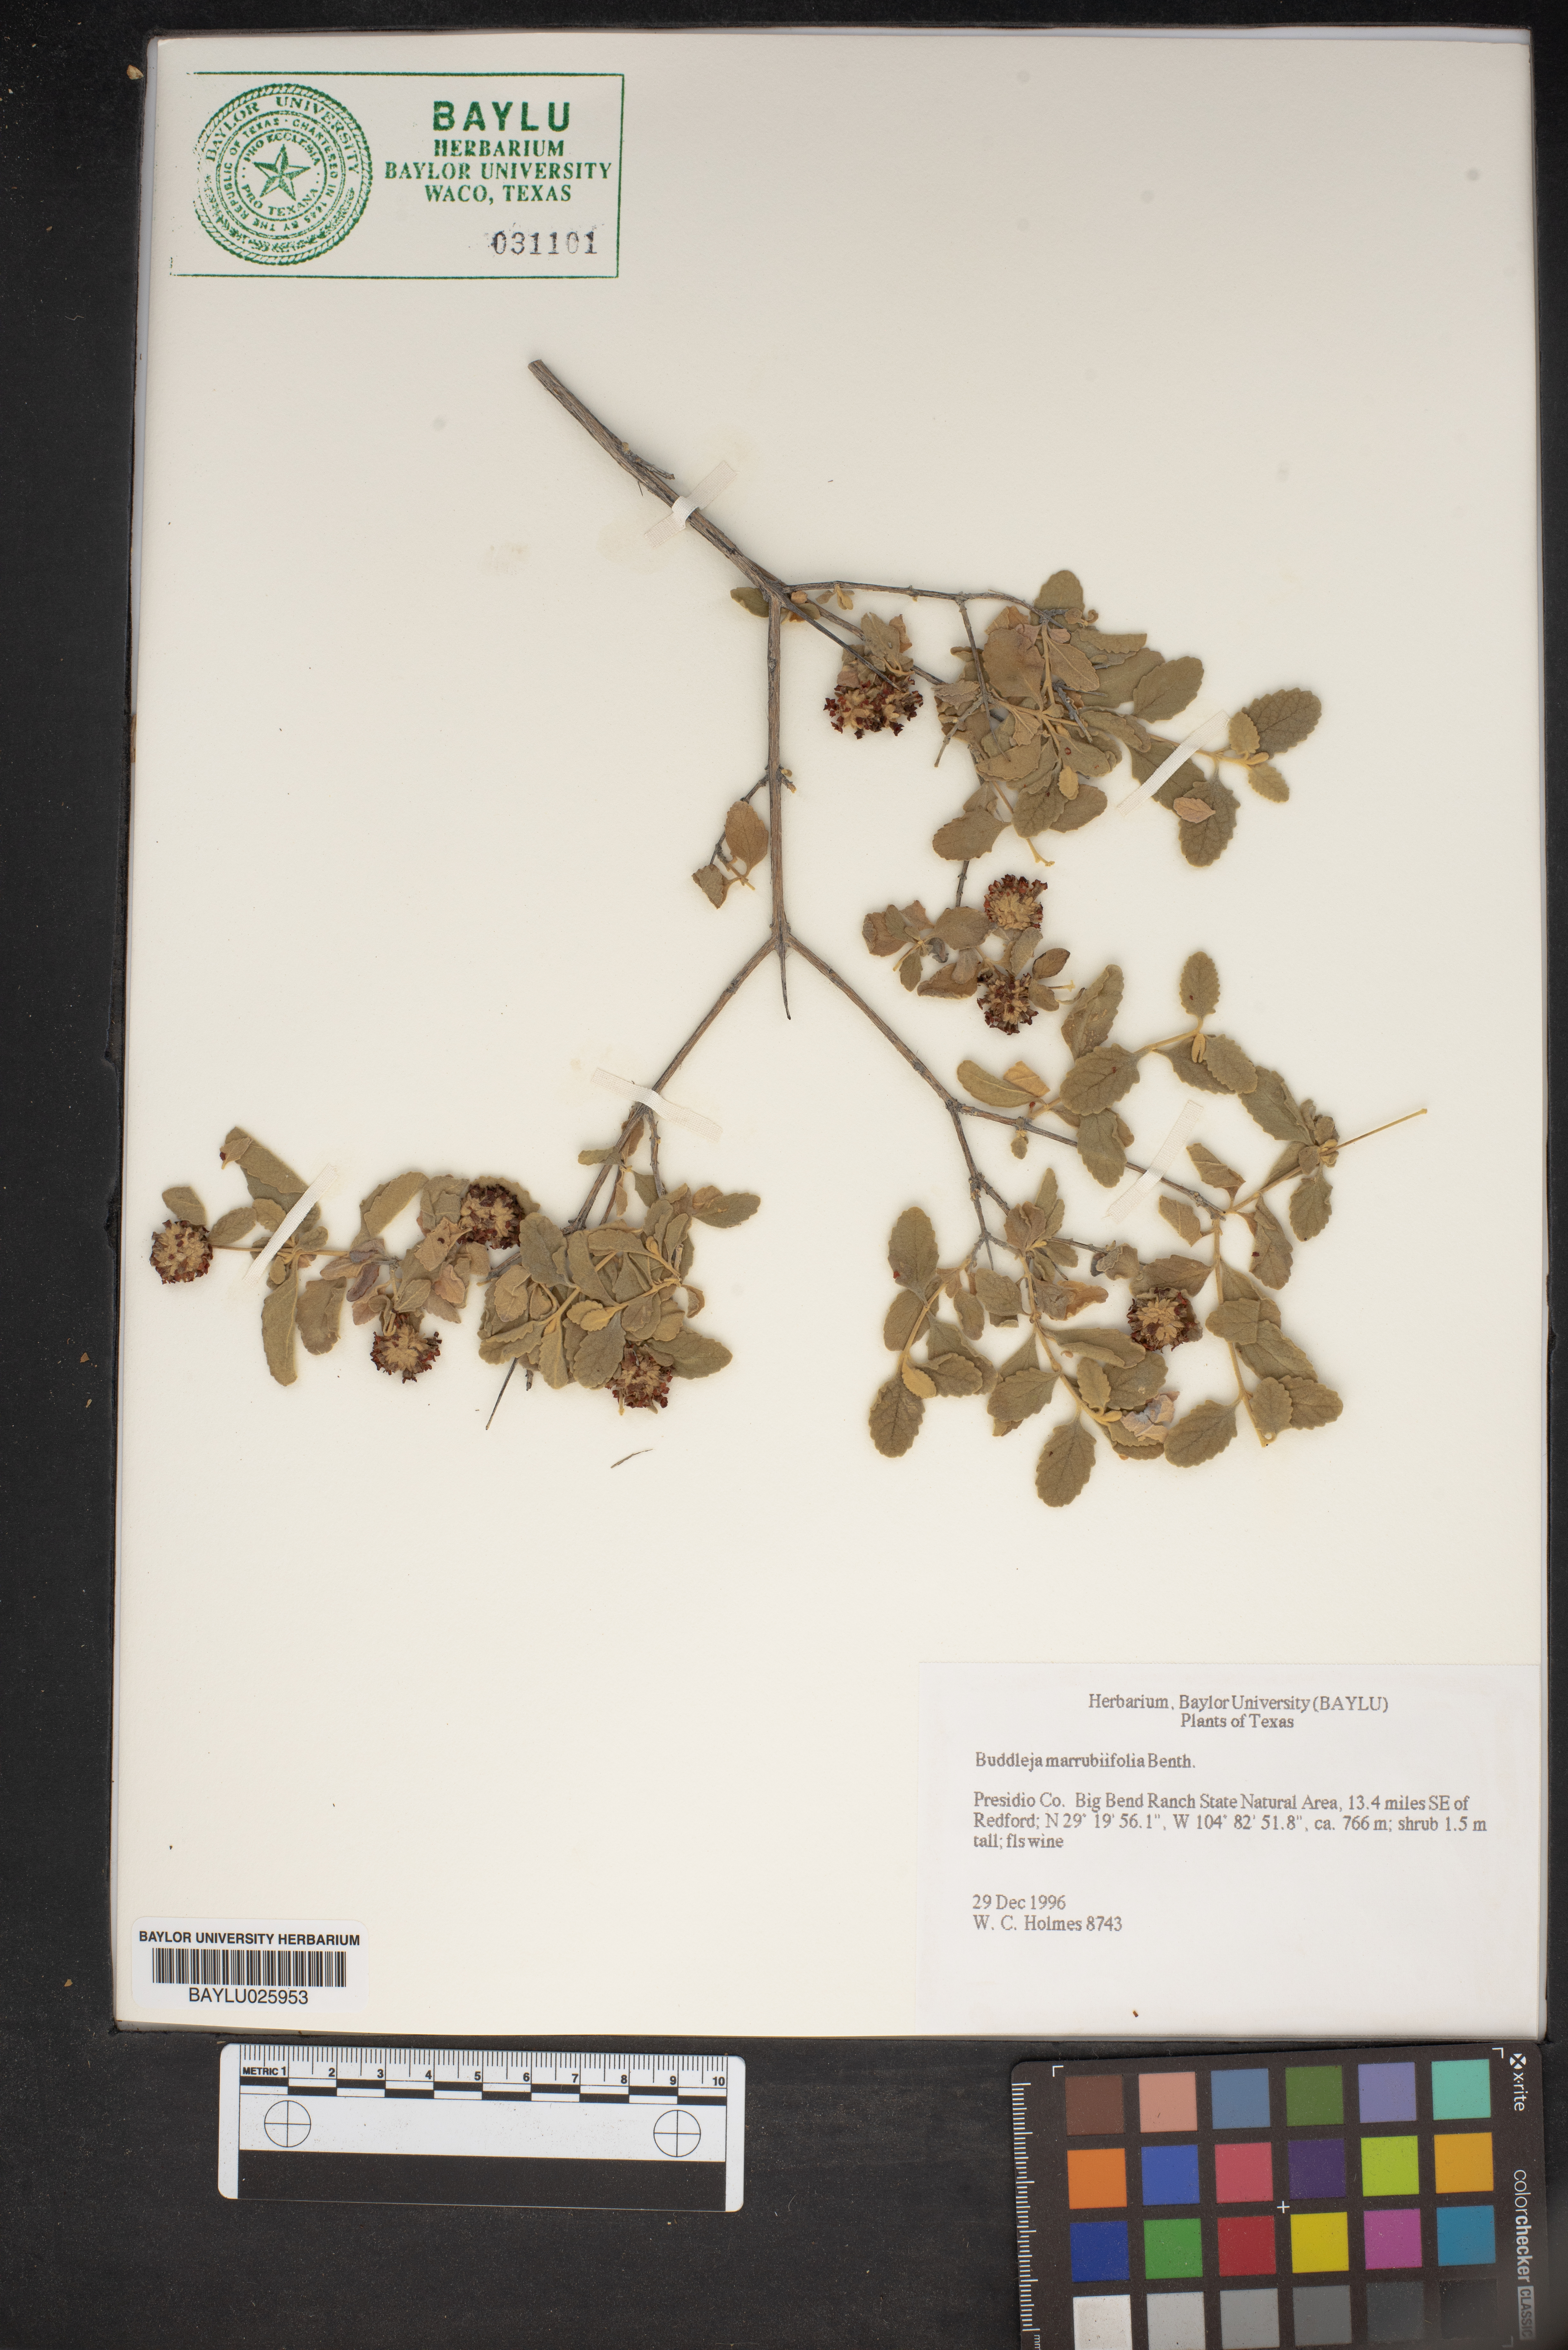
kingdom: Plantae
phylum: Tracheophyta
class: Magnoliopsida
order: Lamiales
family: Scrophulariaceae
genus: Buddleja
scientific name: Buddleja marrubiifolia
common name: Woolly butterfly-bush
